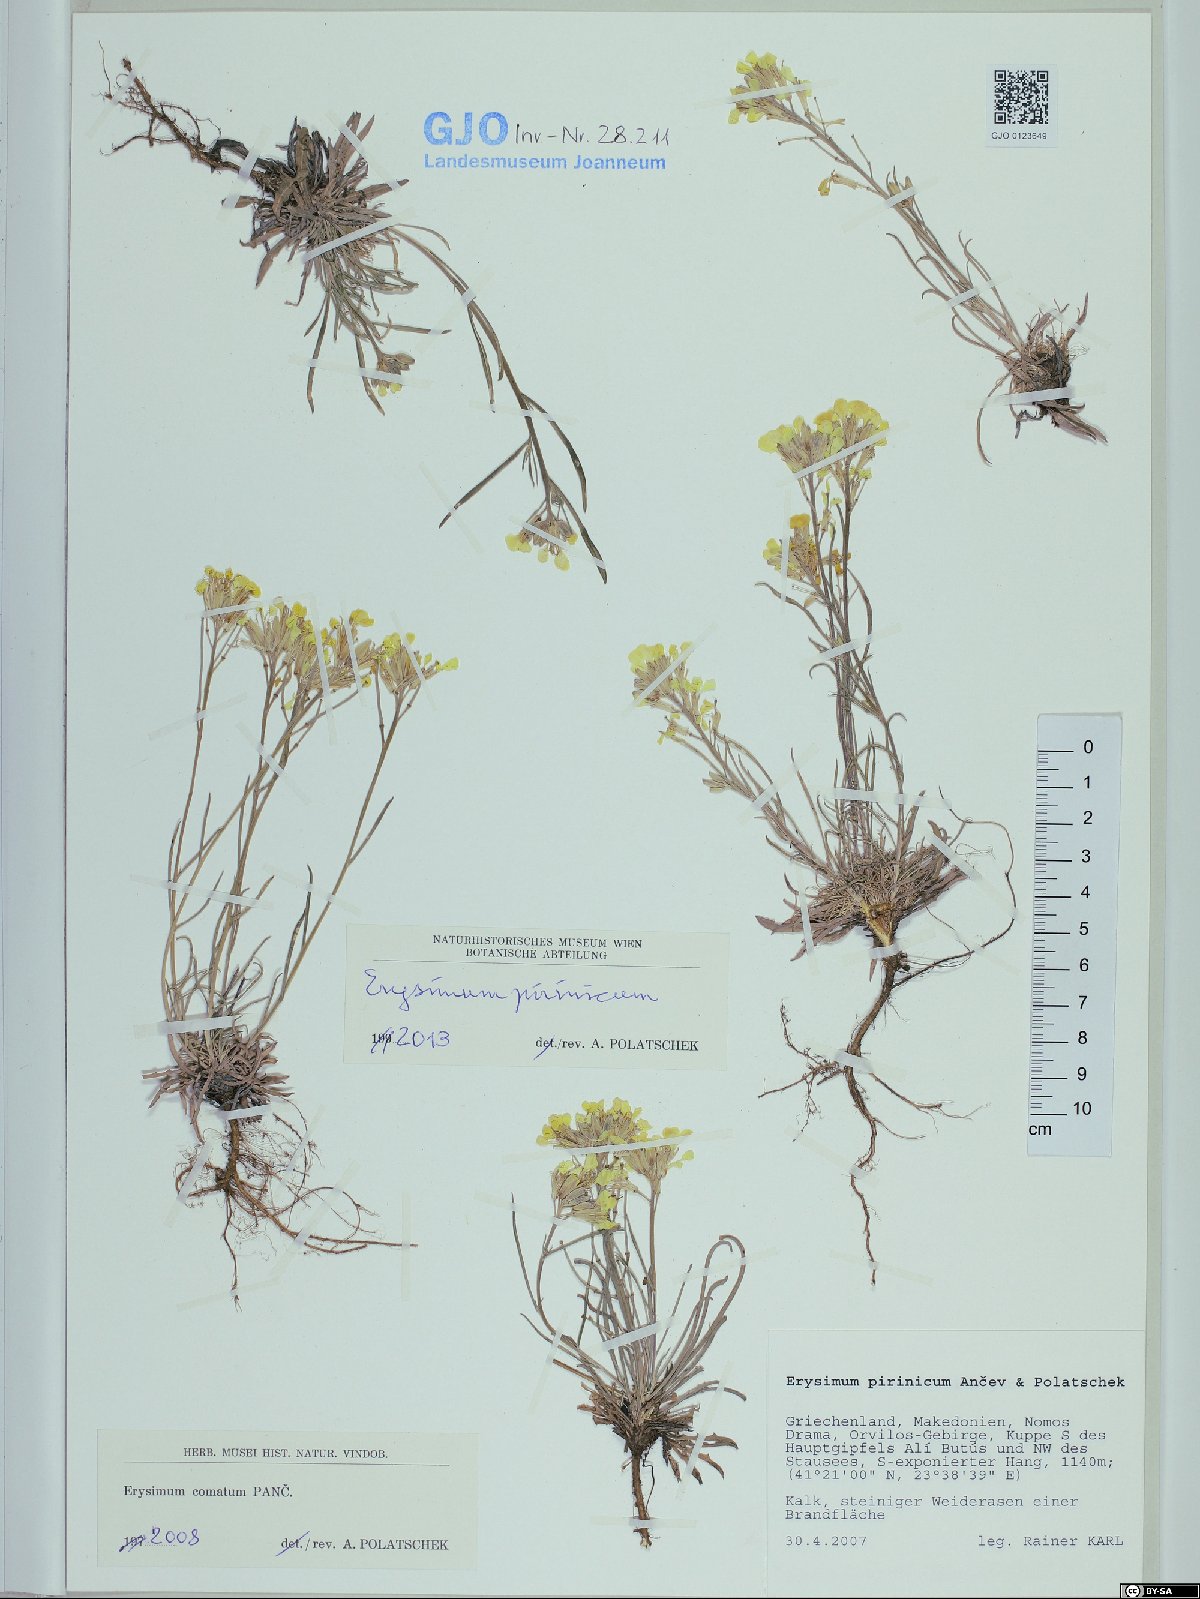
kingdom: Plantae
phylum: Tracheophyta
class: Magnoliopsida
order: Brassicales
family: Brassicaceae
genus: Erysimum
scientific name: Erysimum pirinicum
